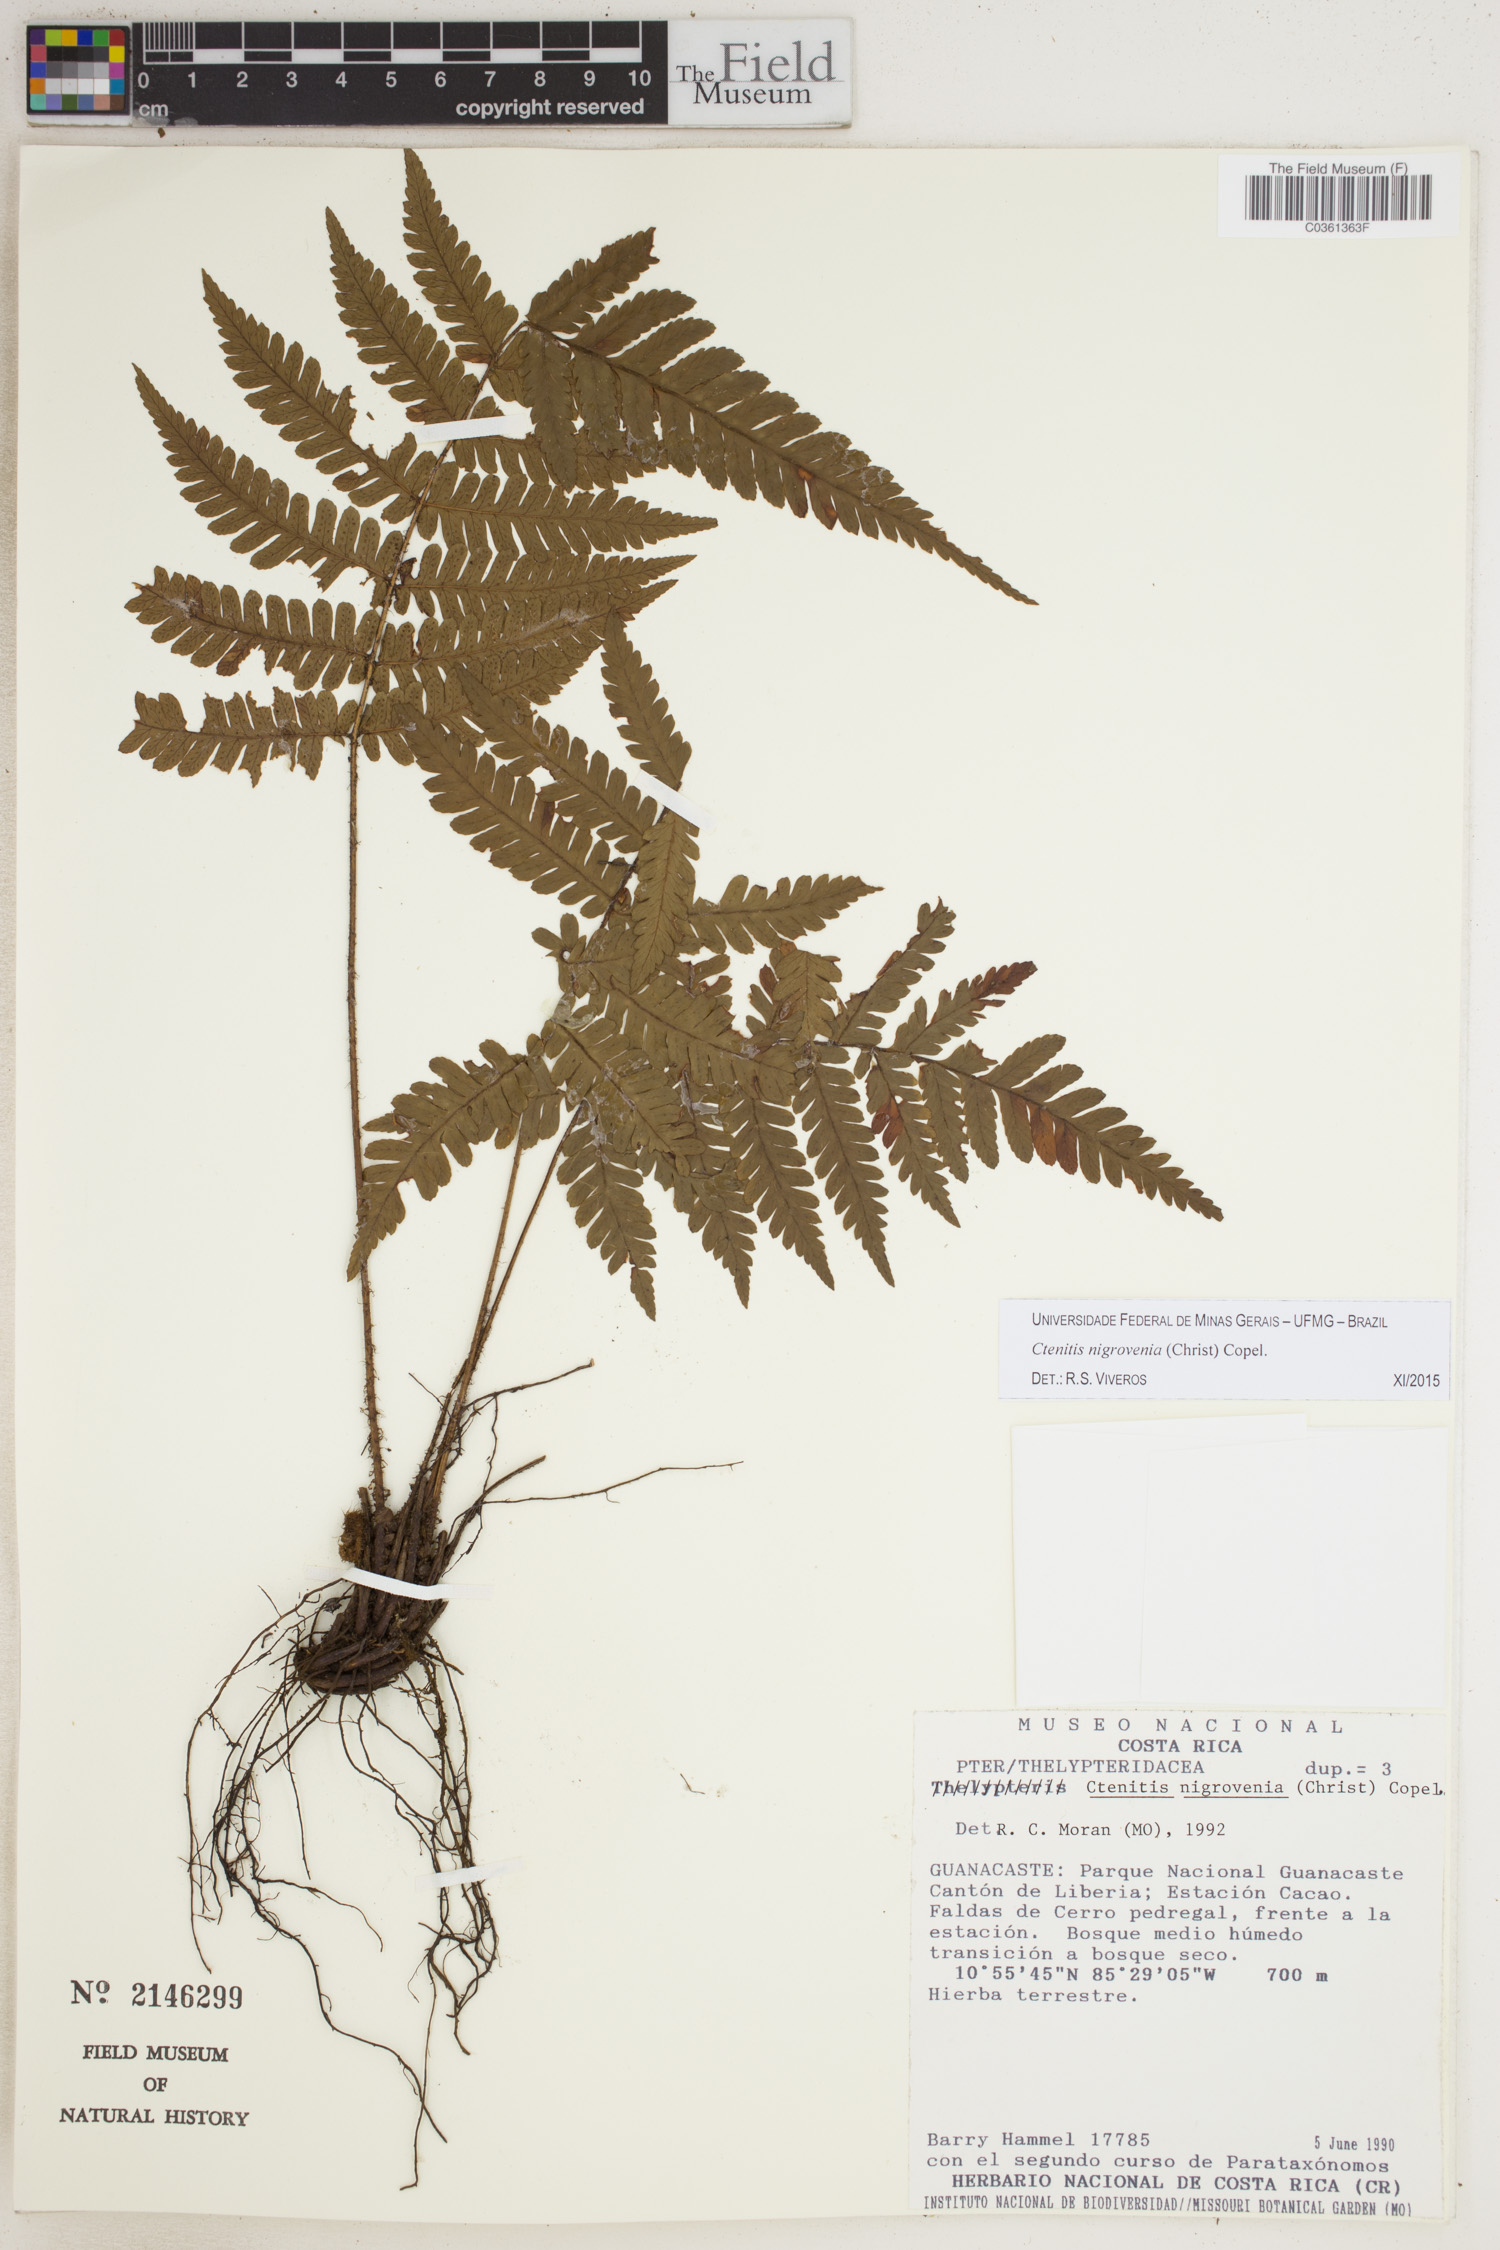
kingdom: Plantae
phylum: Tracheophyta
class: Polypodiopsida
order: Polypodiales
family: Dryopteridaceae
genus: Ctenitis
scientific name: Ctenitis nigrovenia
